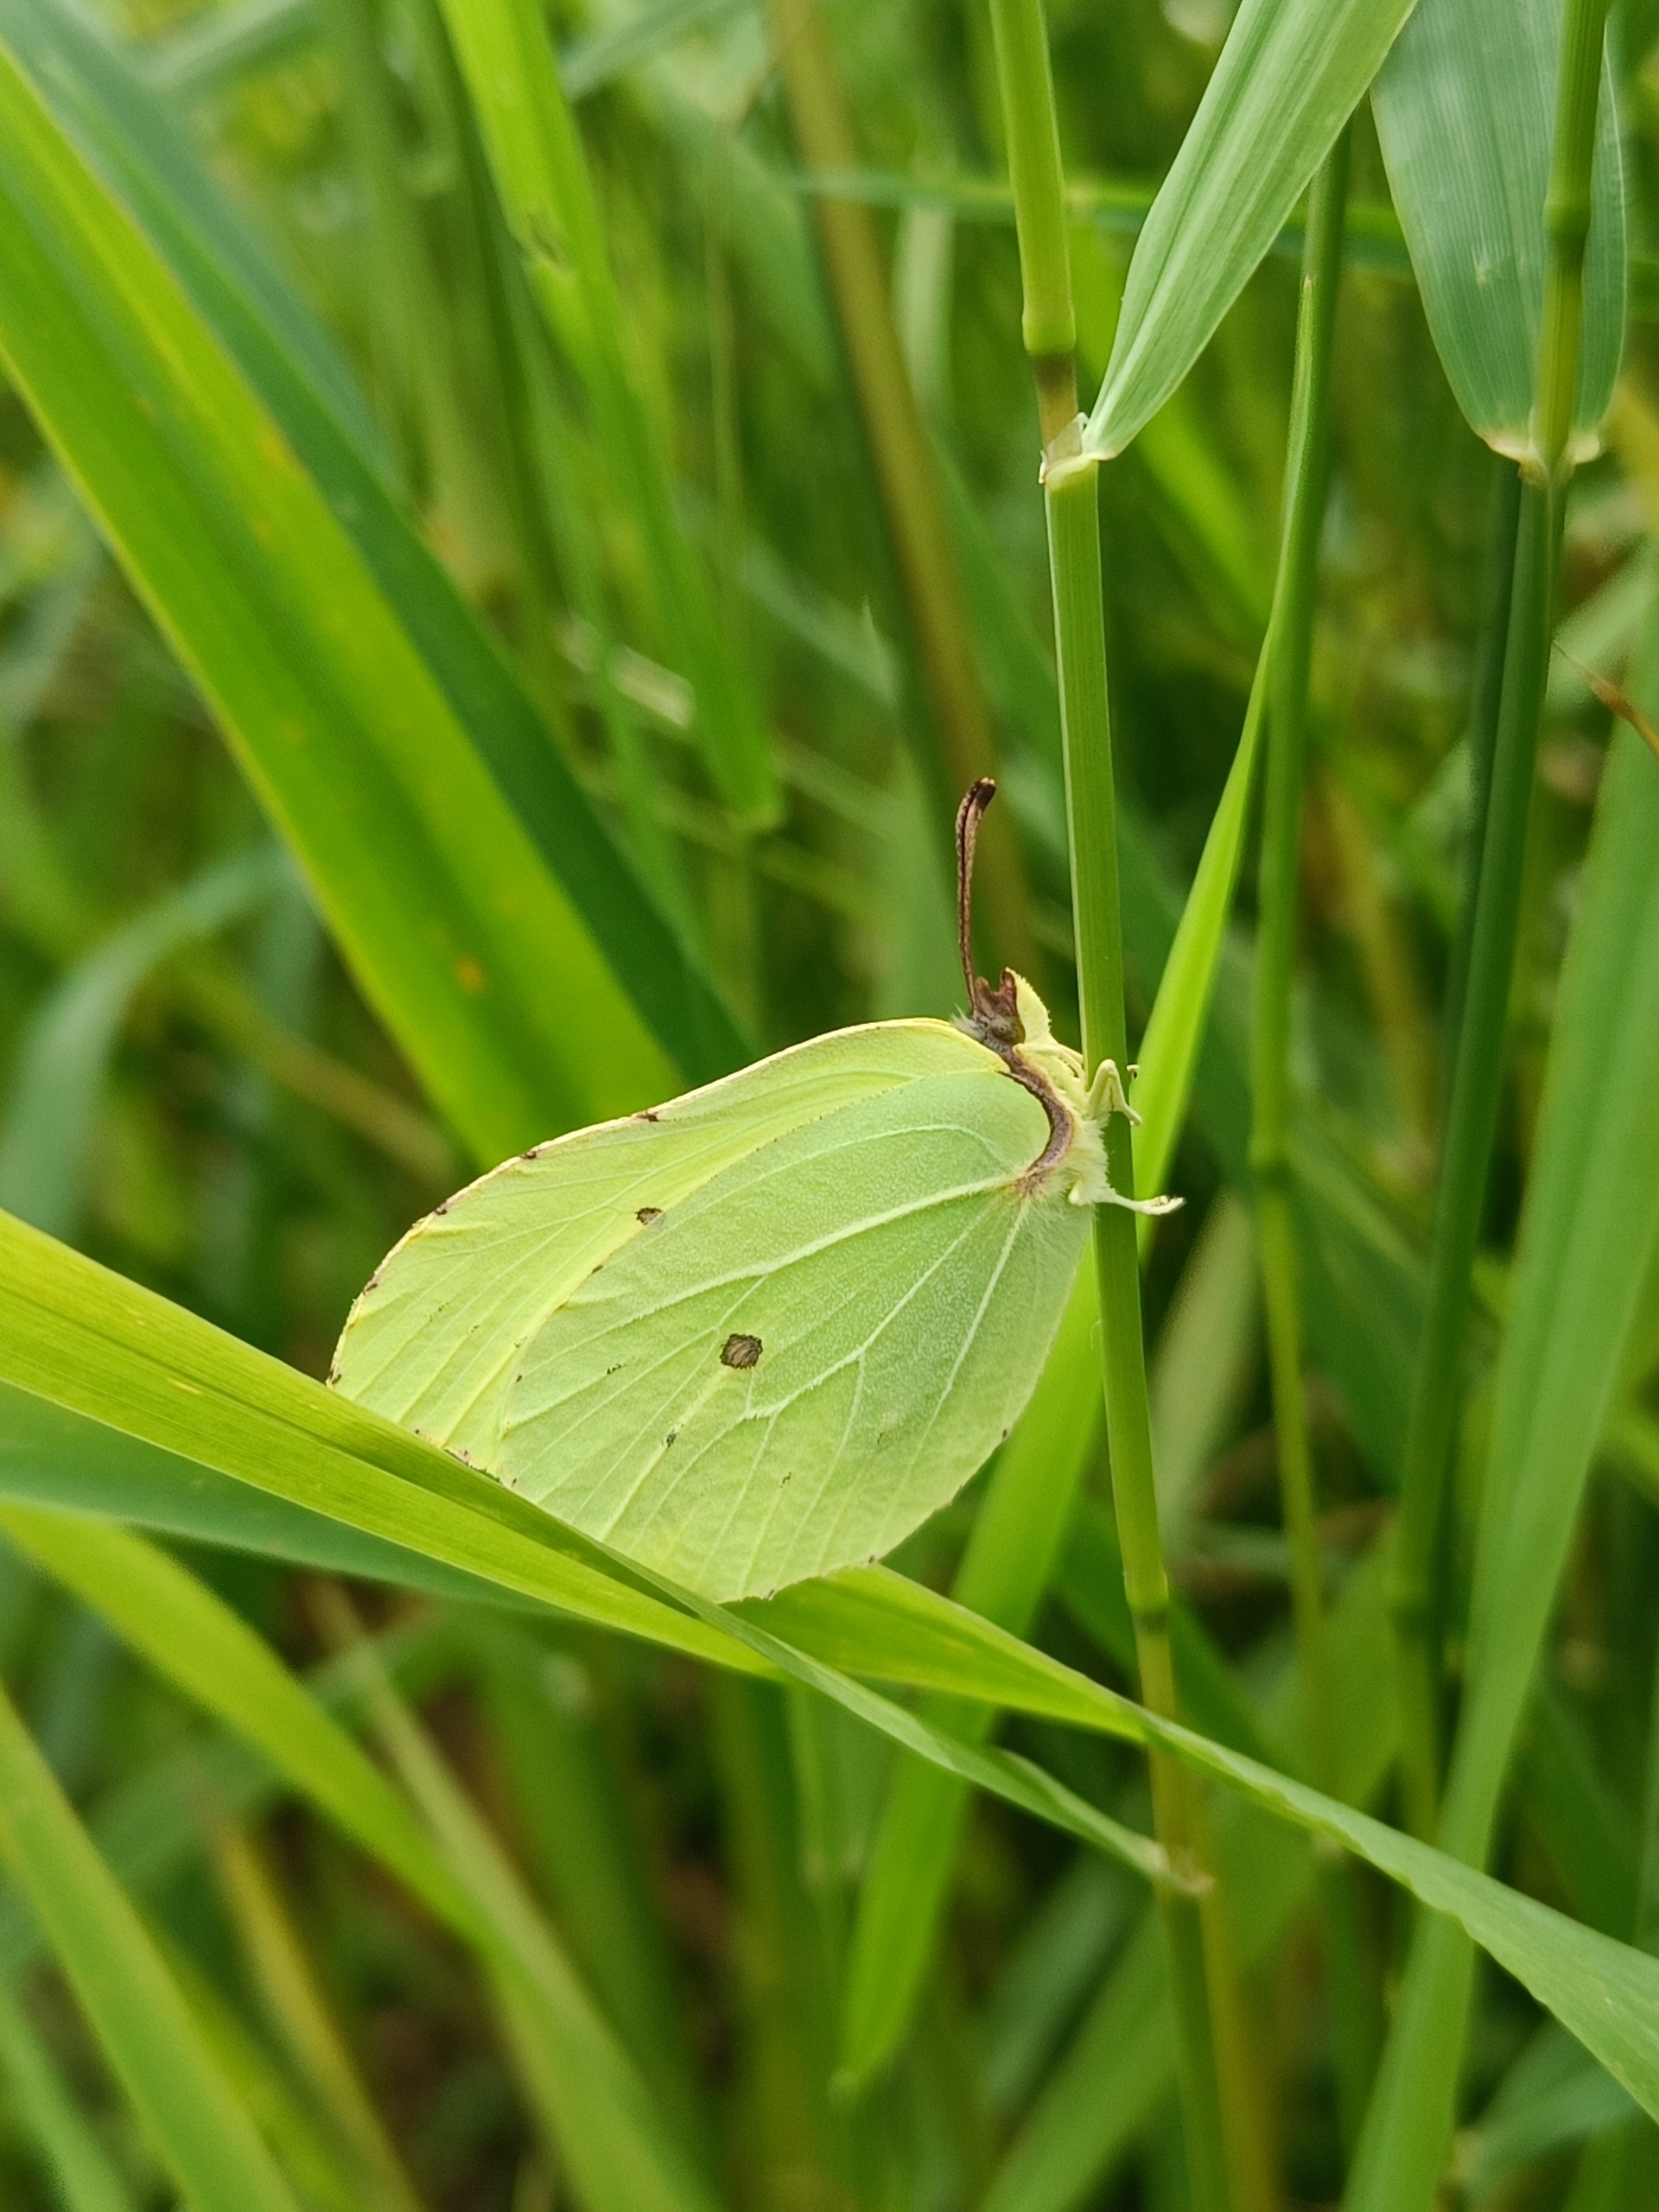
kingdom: Animalia
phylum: Arthropoda
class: Insecta
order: Lepidoptera
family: Pieridae
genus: Gonepteryx
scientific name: Gonepteryx rhamni
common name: Citronsommerfugl
